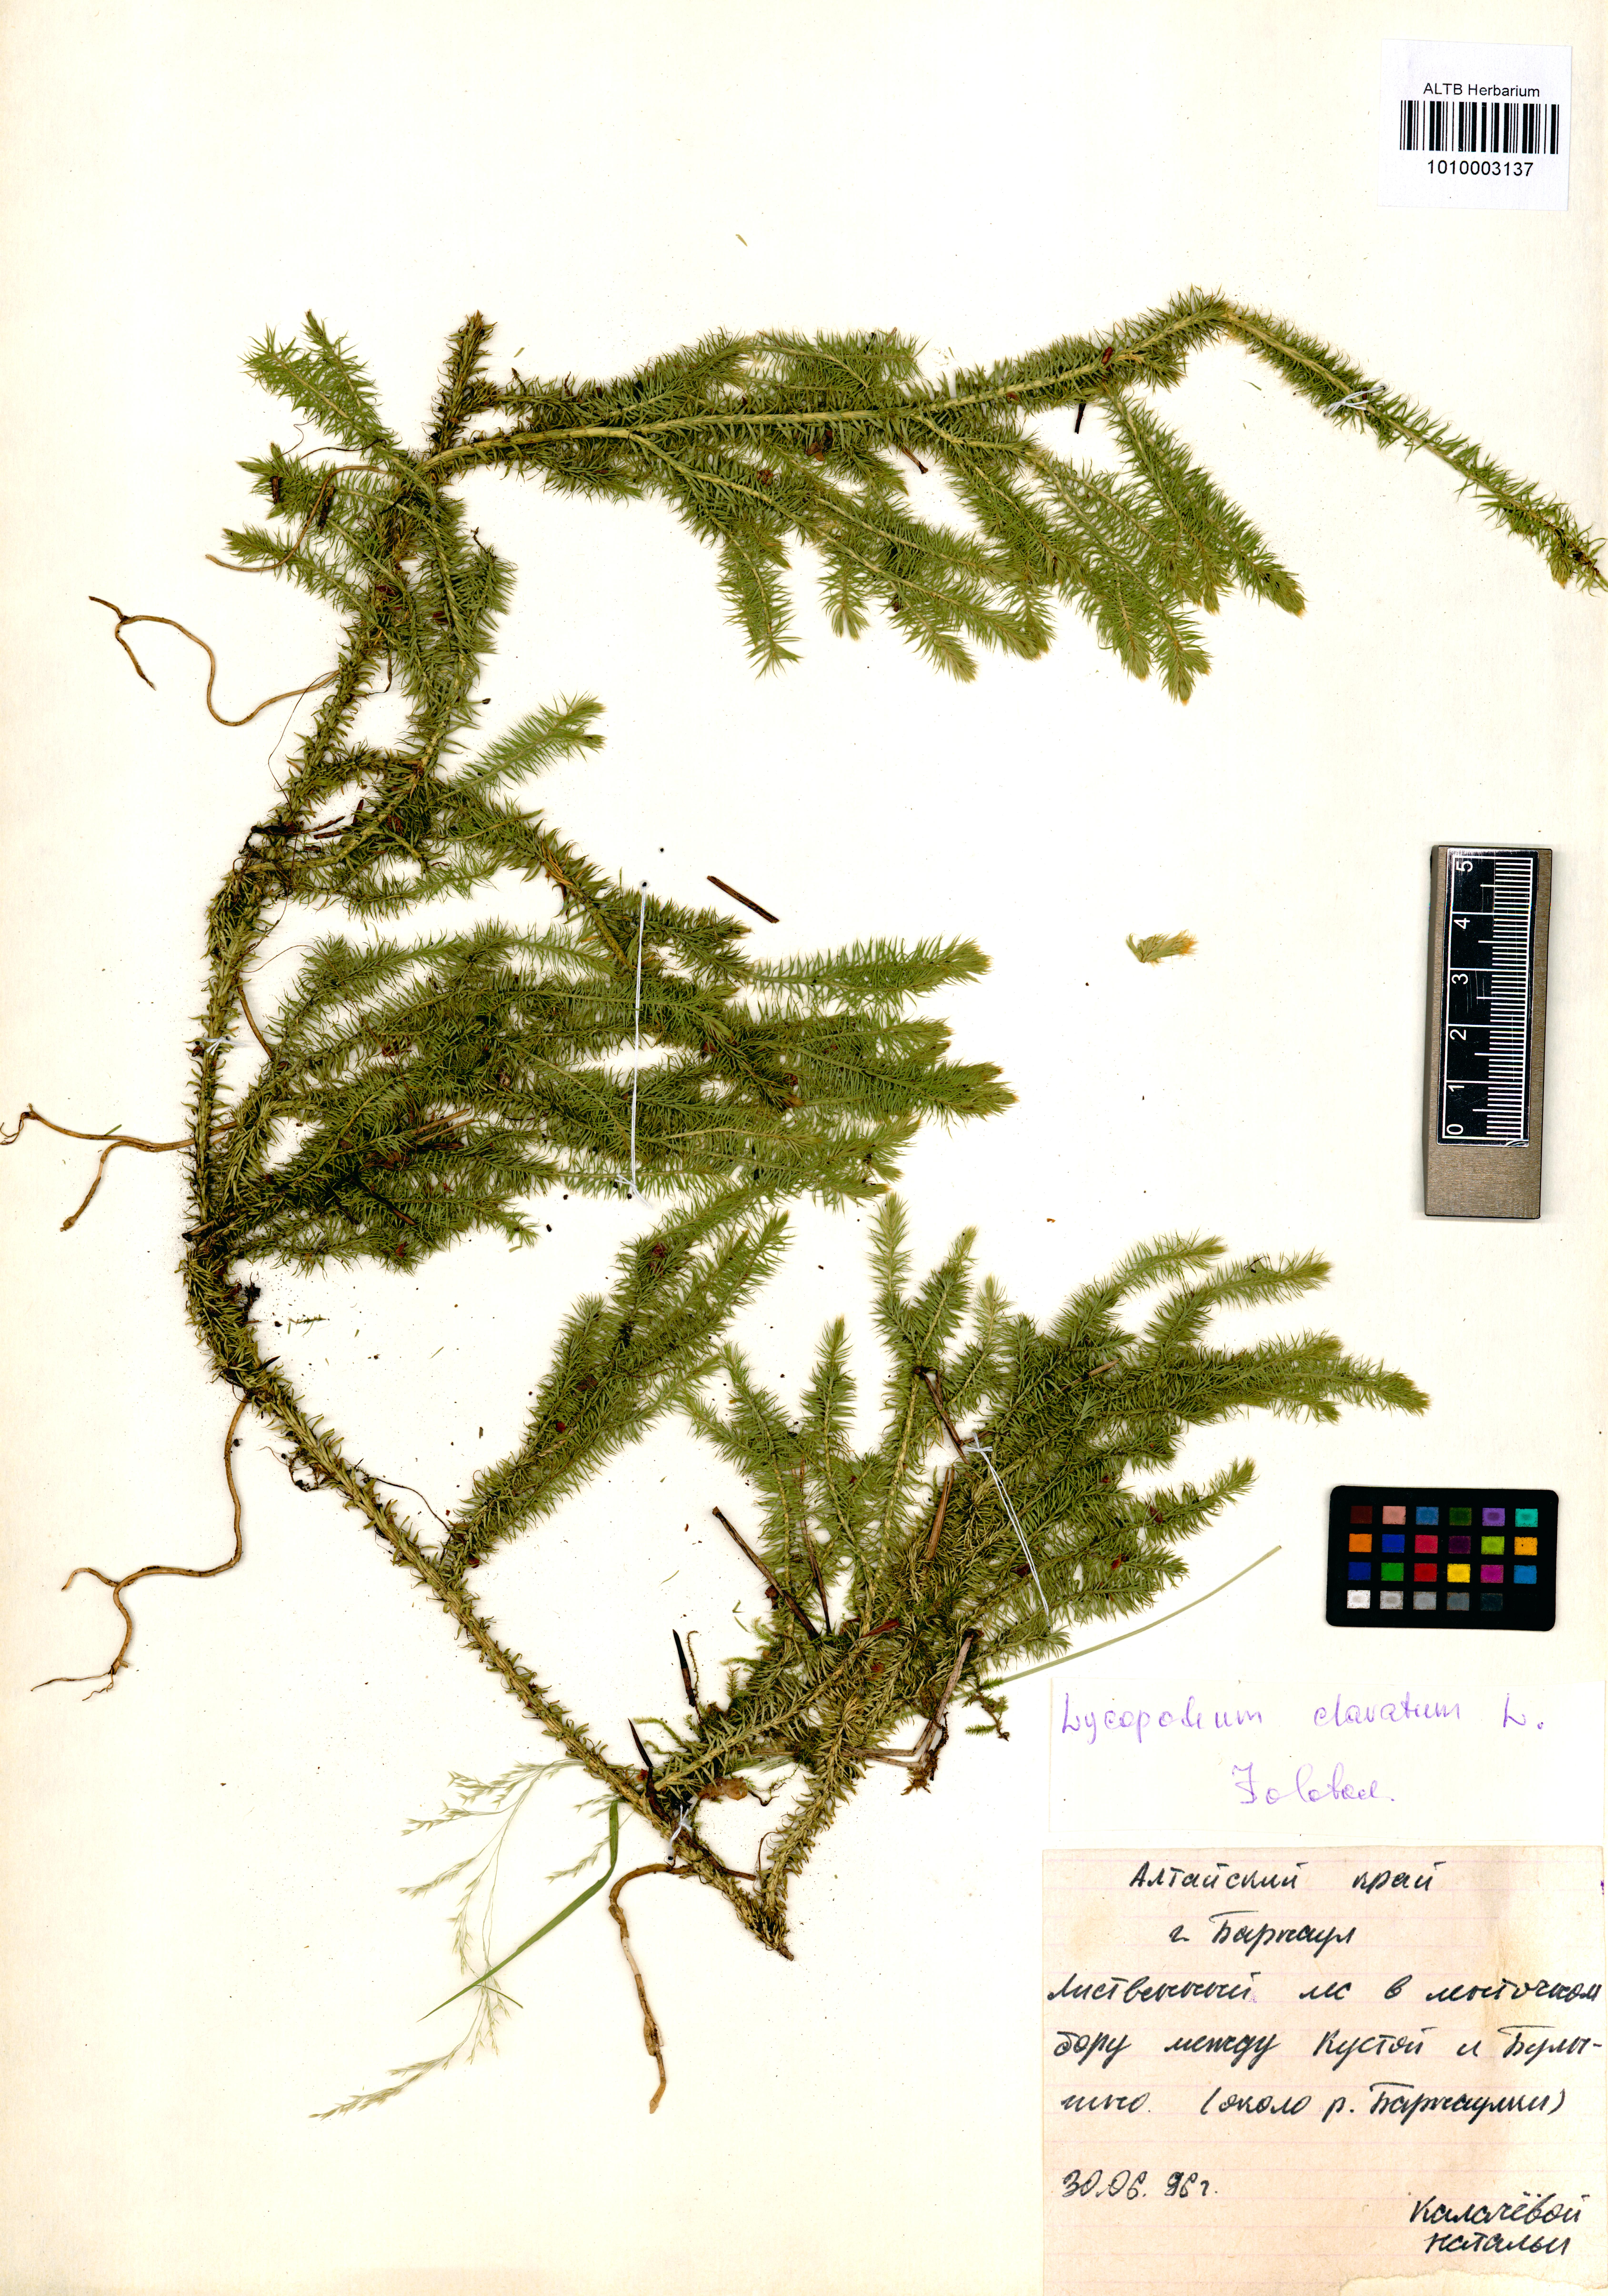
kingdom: Plantae
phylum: Tracheophyta
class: Lycopodiopsida
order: Lycopodiales
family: Lycopodiaceae
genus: Lycopodium
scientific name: Lycopodium clavatum
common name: Stag's-horn clubmoss
